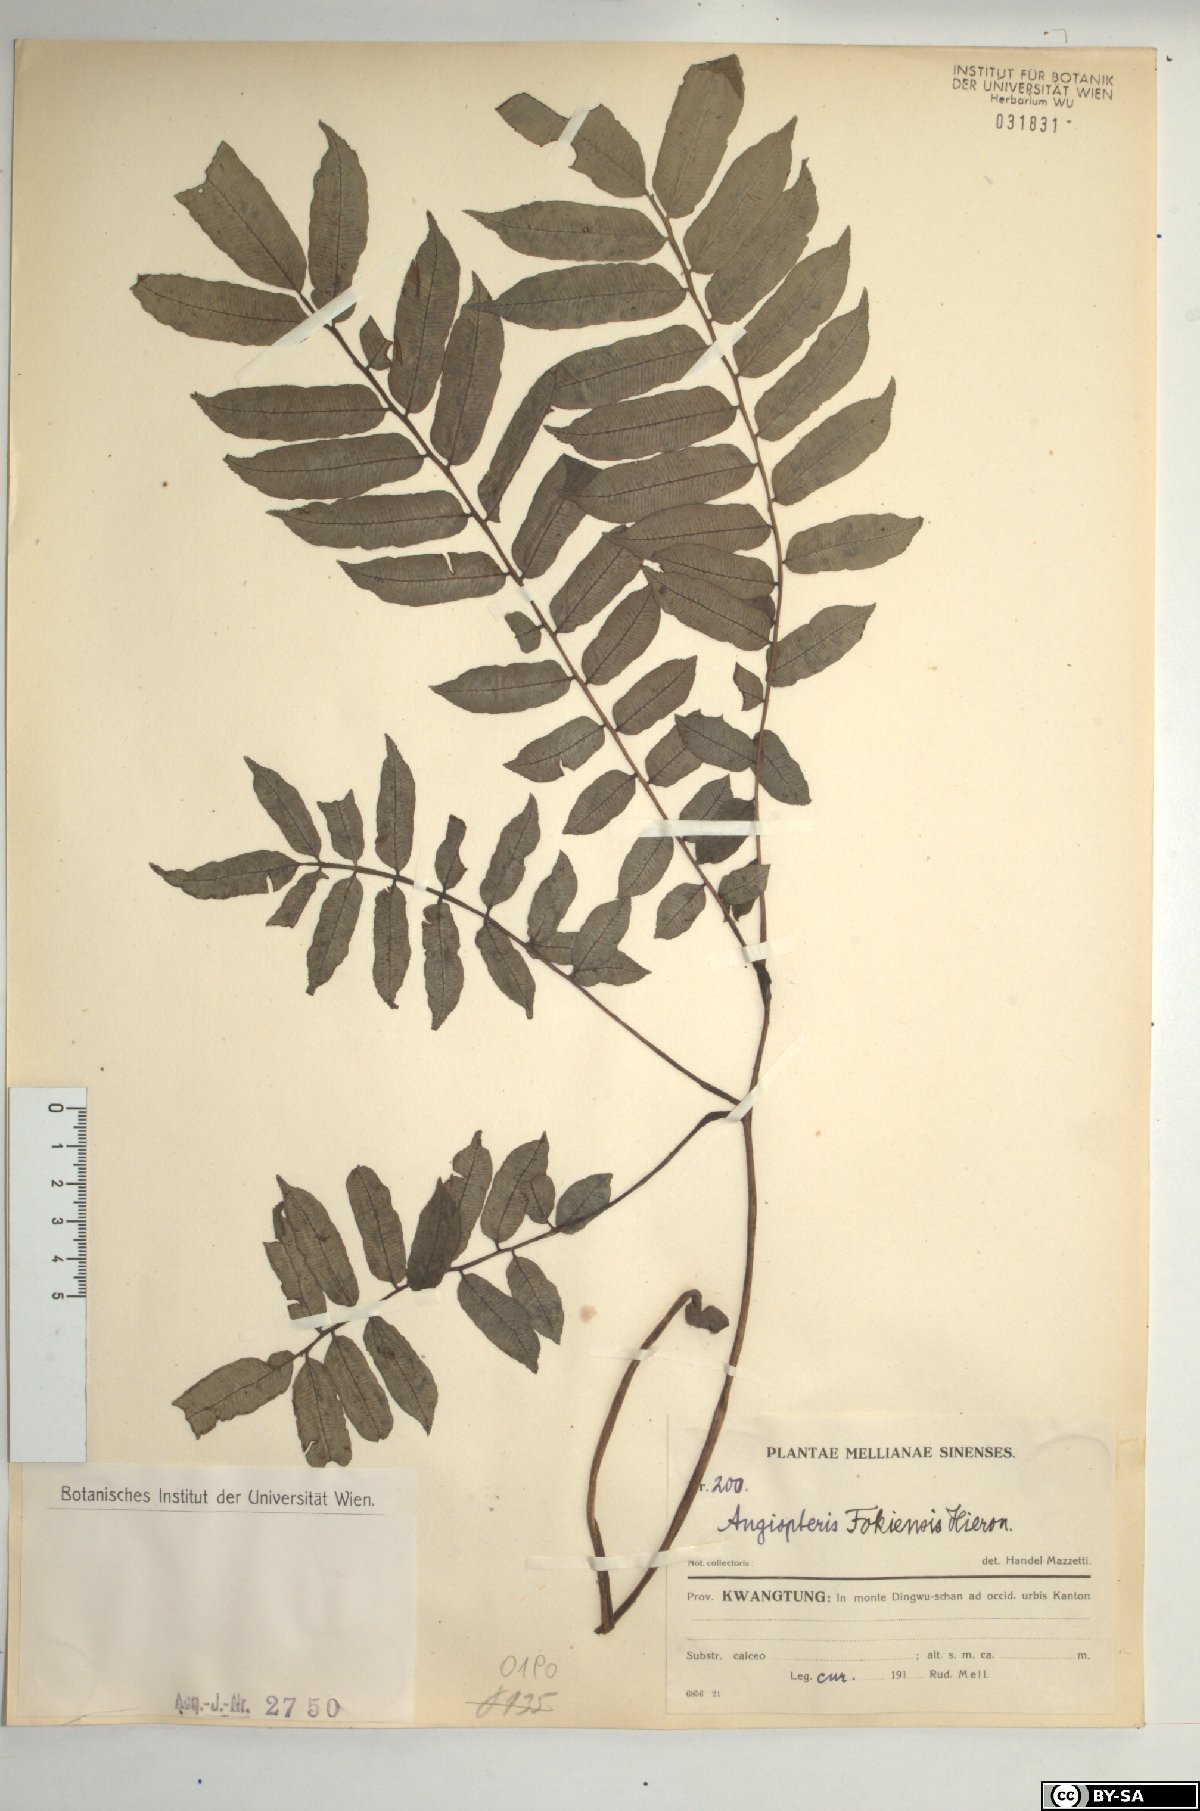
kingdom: Plantae
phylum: Tracheophyta
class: Polypodiopsida
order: Marattiales
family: Marattiaceae
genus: Angiopteris
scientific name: Angiopteris fokiensis
